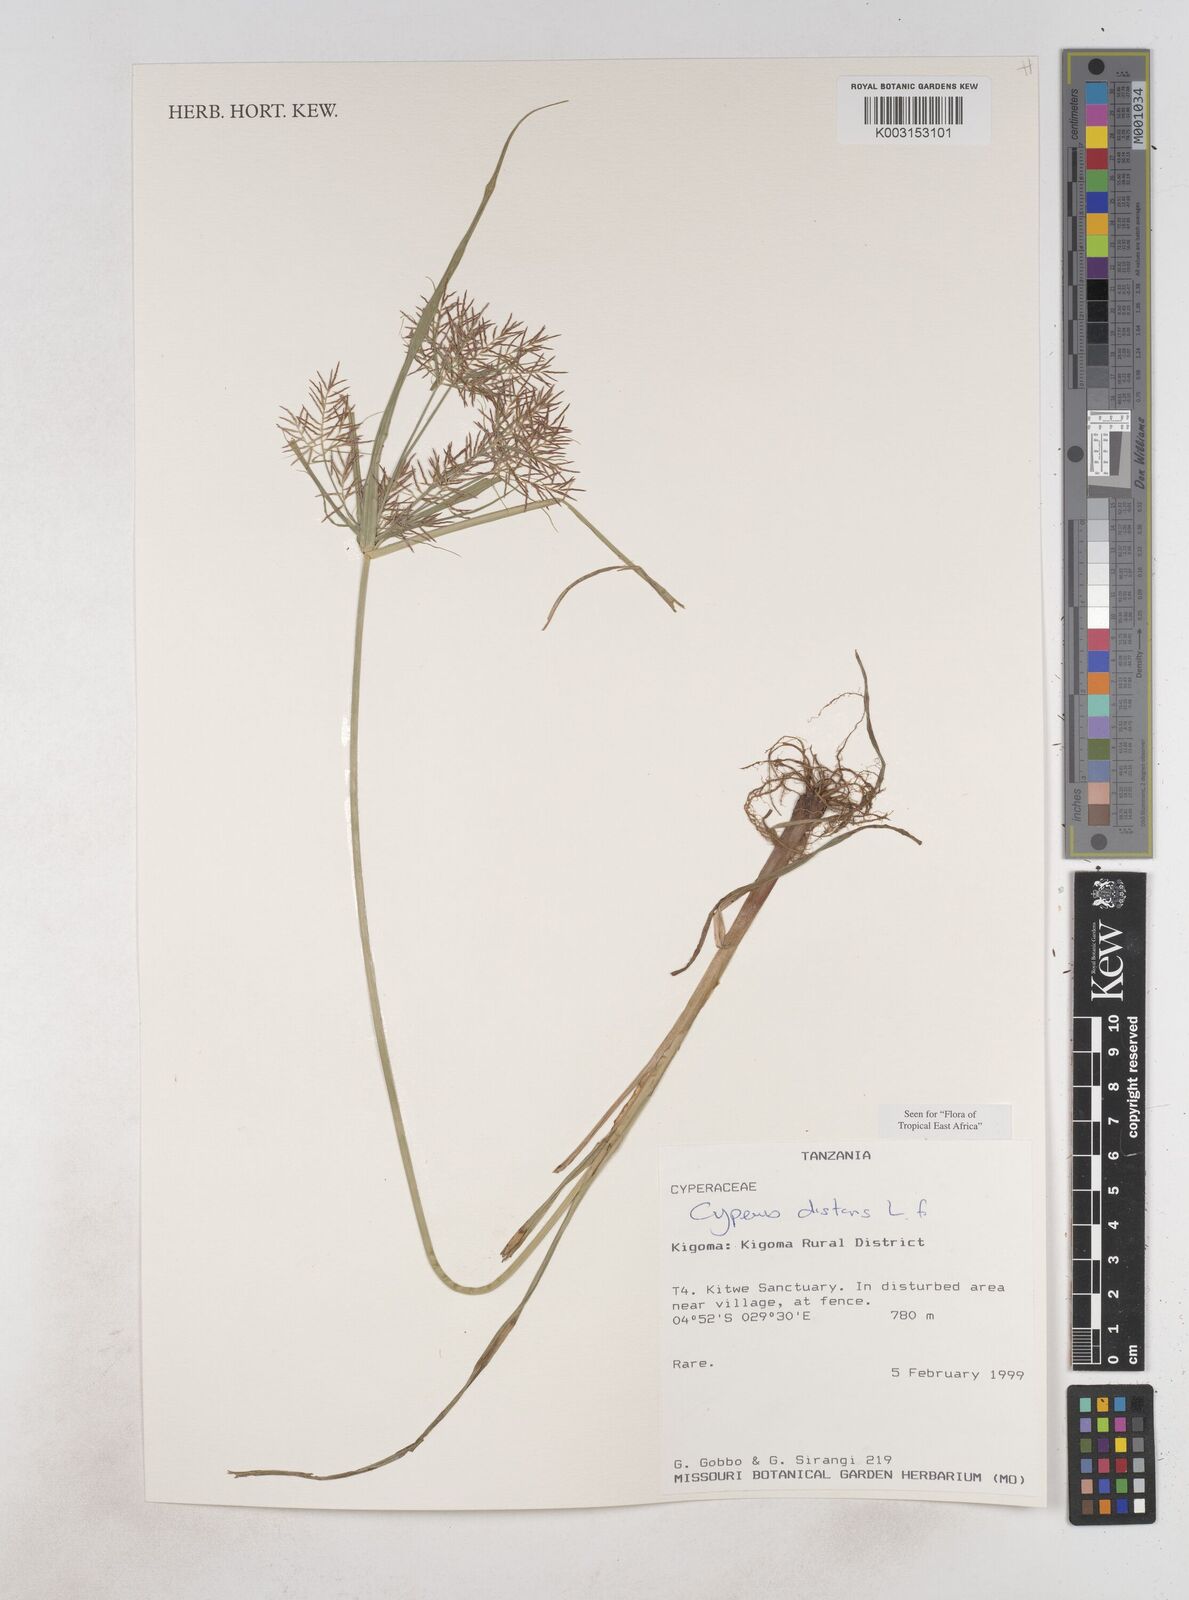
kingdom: Plantae
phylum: Tracheophyta
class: Liliopsida
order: Poales
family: Cyperaceae
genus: Cyperus
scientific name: Cyperus distans
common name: Slender cyperus
